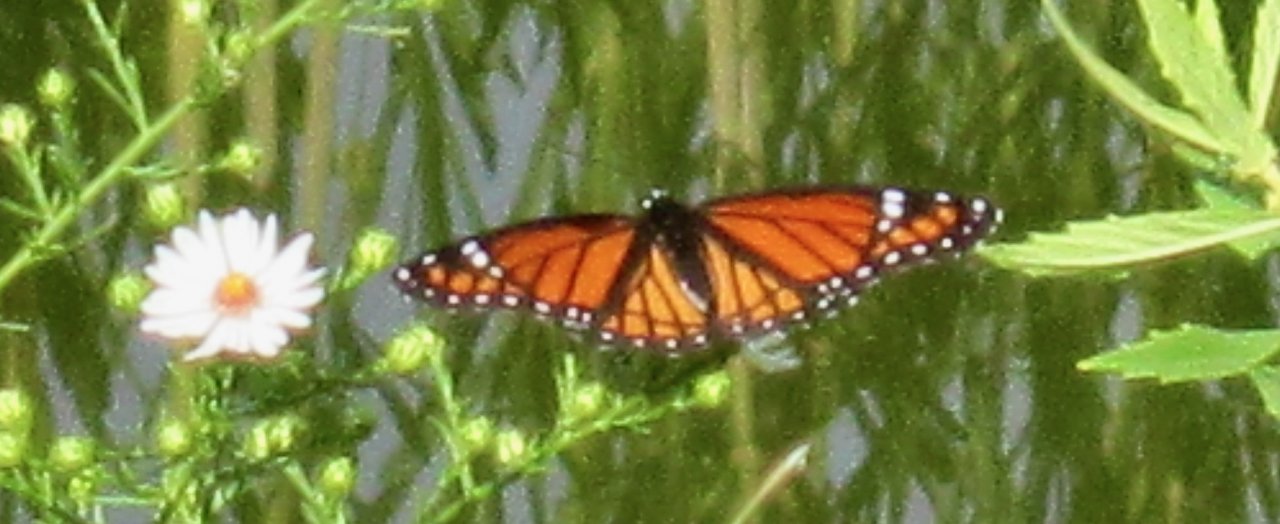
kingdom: Animalia
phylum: Arthropoda
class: Insecta
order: Lepidoptera
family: Nymphalidae
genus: Limenitis
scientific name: Limenitis archippus
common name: Viceroy
